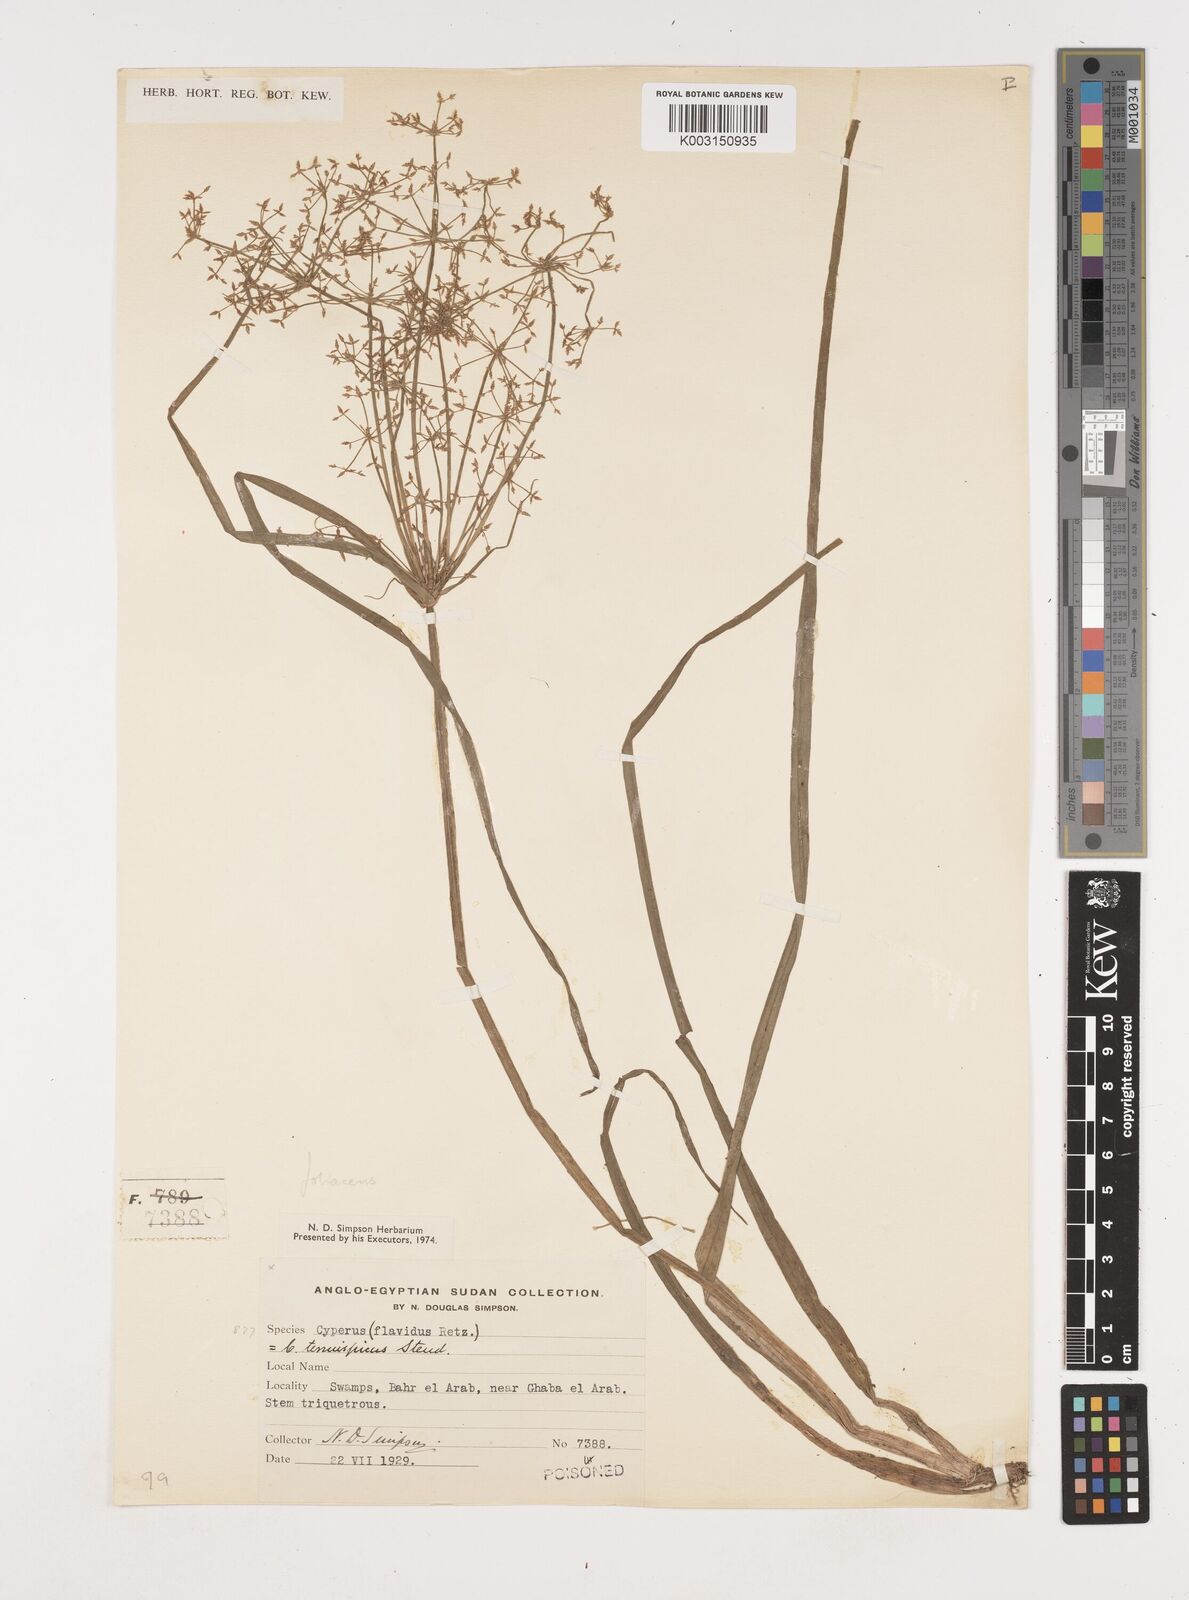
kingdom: Plantae
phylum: Tracheophyta
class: Liliopsida
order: Poales
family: Cyperaceae
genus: Cyperus
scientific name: Cyperus foliaceus
